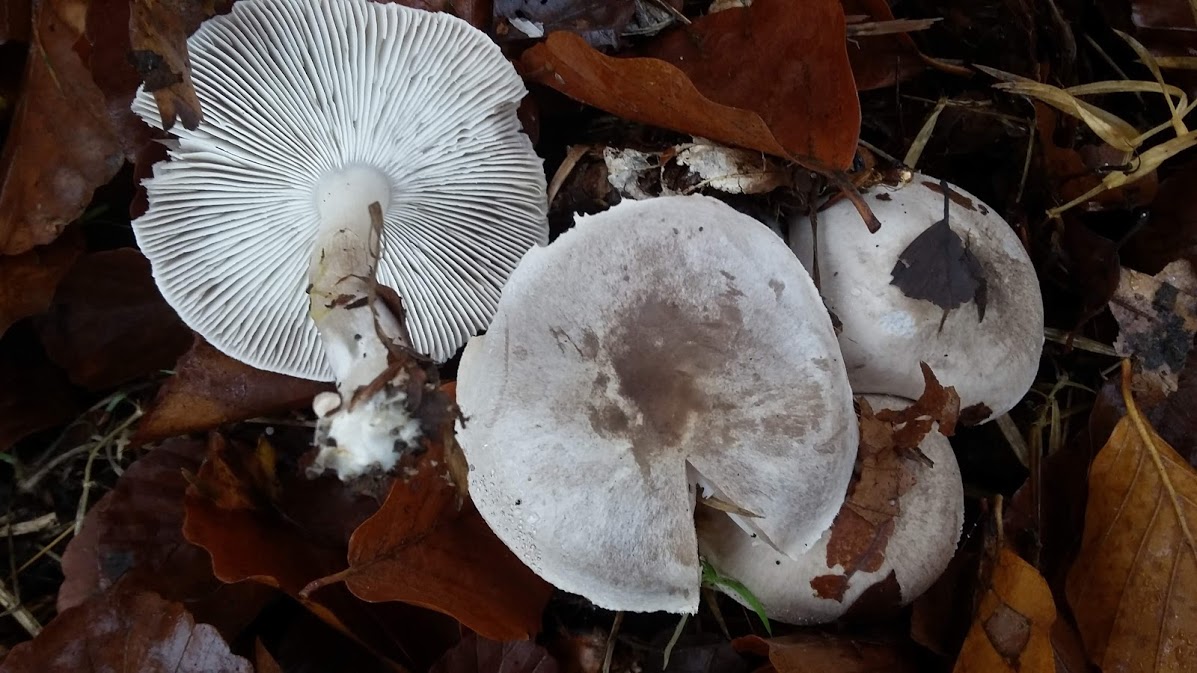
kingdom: Fungi
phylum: Basidiomycota
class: Agaricomycetes
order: Agaricales
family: Tricholomataceae
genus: Tricholoma
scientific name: Tricholoma
